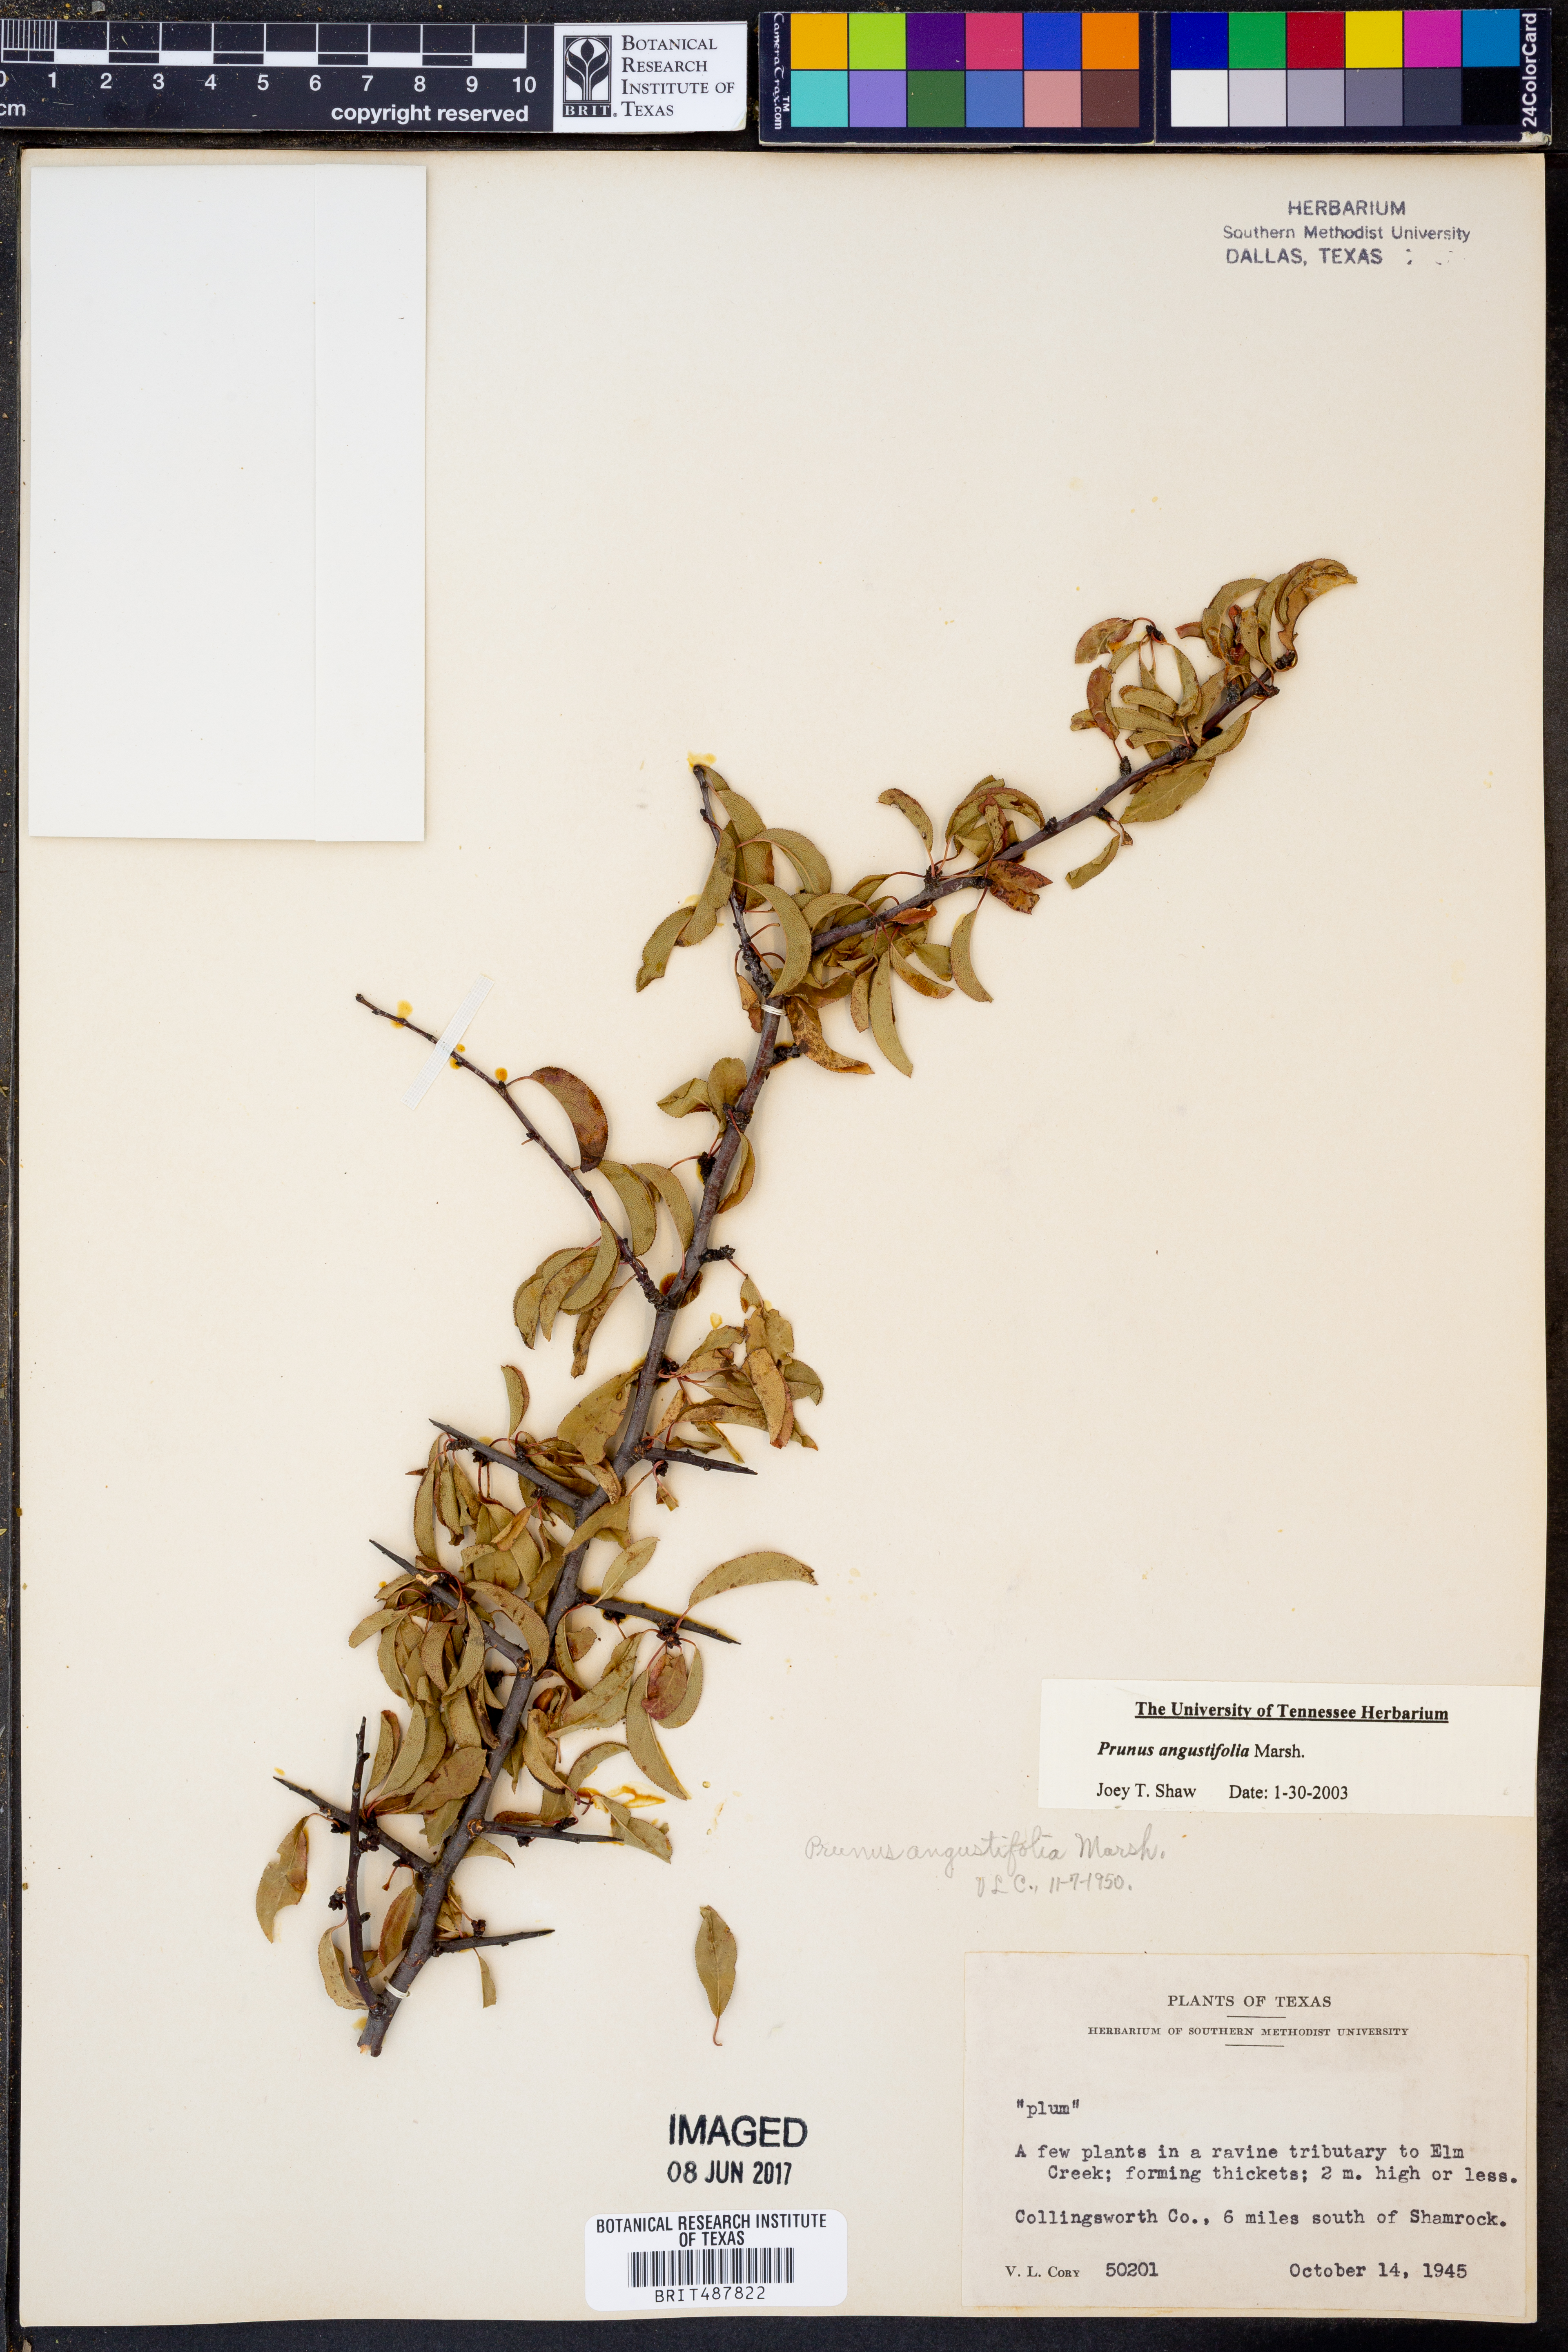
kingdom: Plantae
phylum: Tracheophyta
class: Magnoliopsida
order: Rosales
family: Rosaceae
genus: Prunus
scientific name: Prunus angustifolia
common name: Cherokee plum
